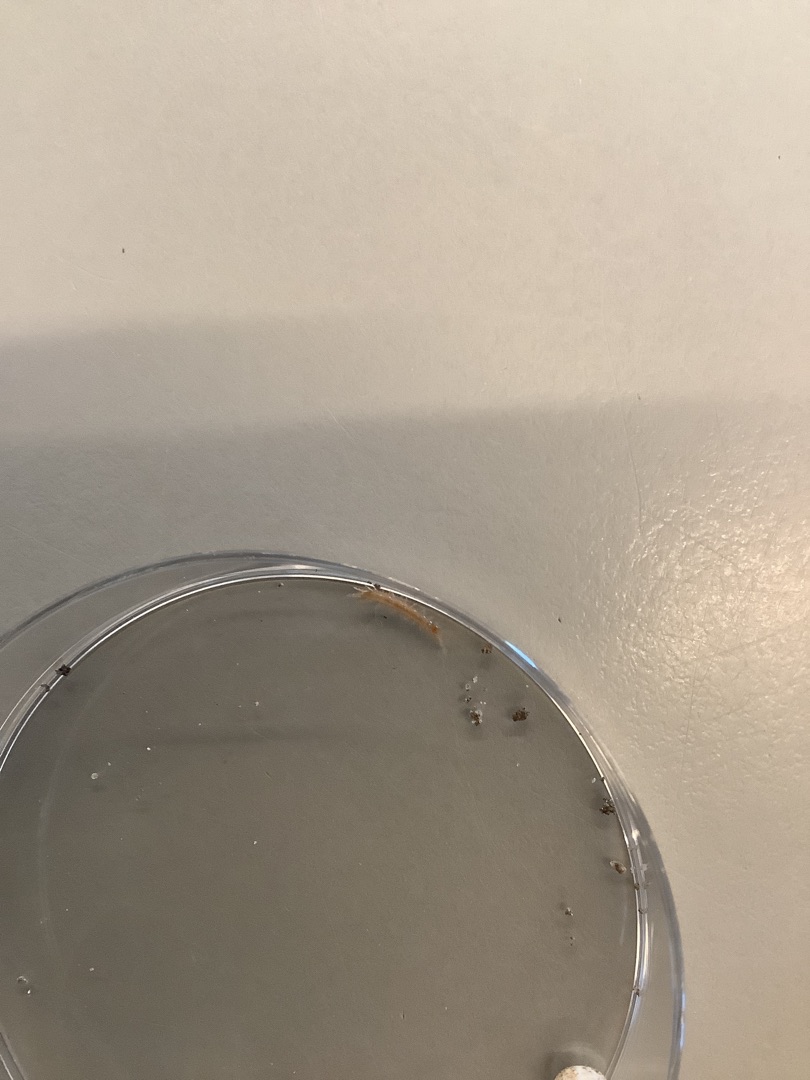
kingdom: Animalia
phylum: Arthropoda
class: Chilopoda
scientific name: Chilopoda
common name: Skolopendre
